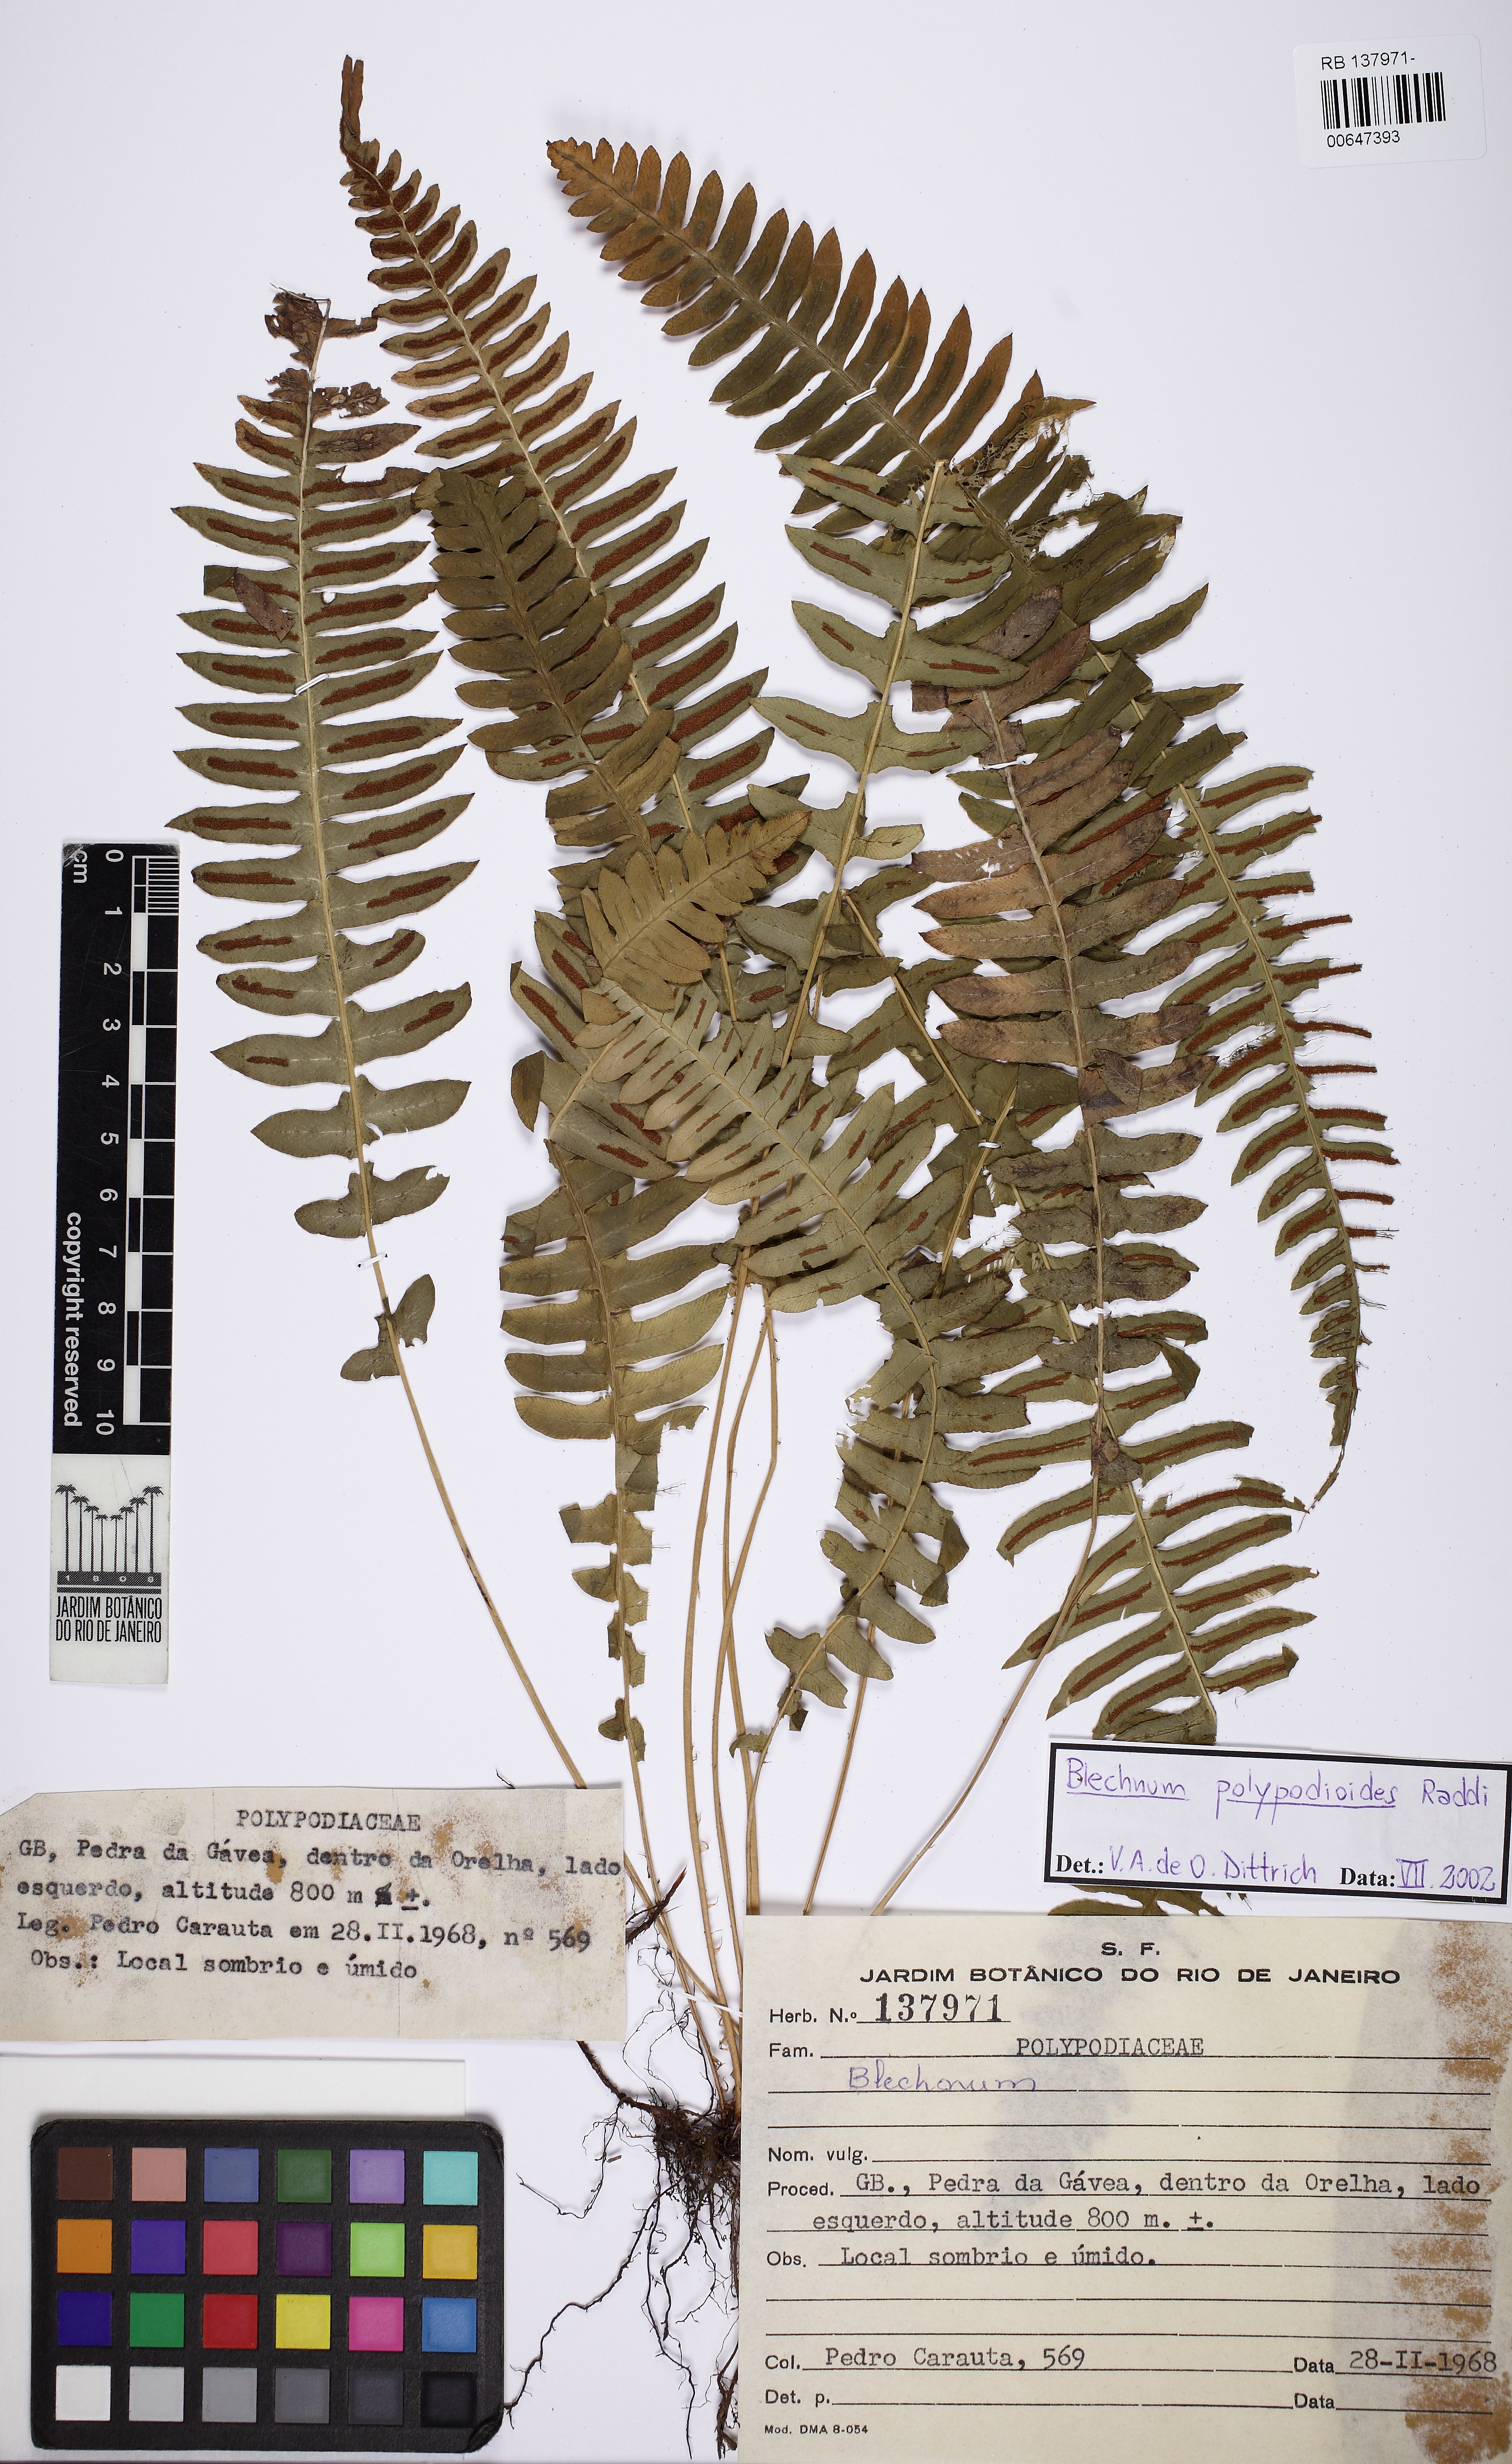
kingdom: Plantae
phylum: Tracheophyta
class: Polypodiopsida
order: Polypodiales
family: Blechnaceae
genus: Blechnum
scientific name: Blechnum polypodioides
